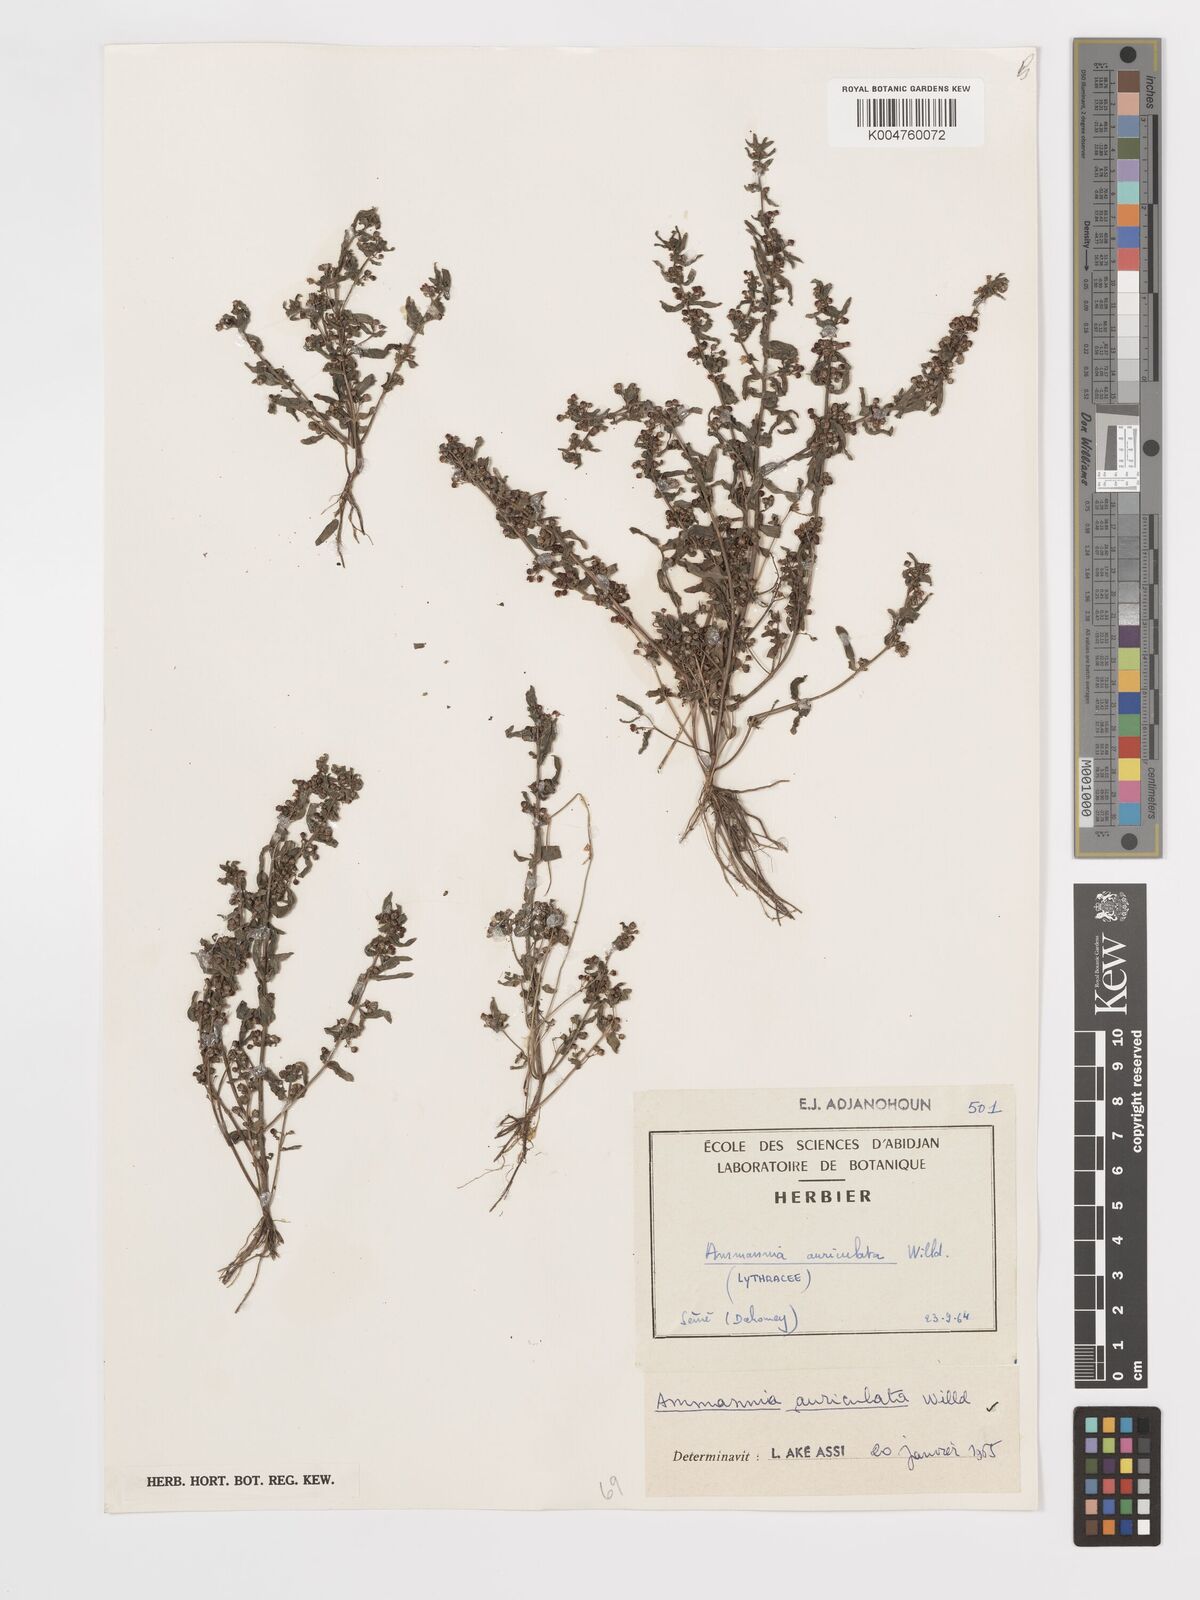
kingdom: Plantae
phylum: Tracheophyta
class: Magnoliopsida
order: Myrtales
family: Lythraceae
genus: Ammannia
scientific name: Ammannia auriculata
